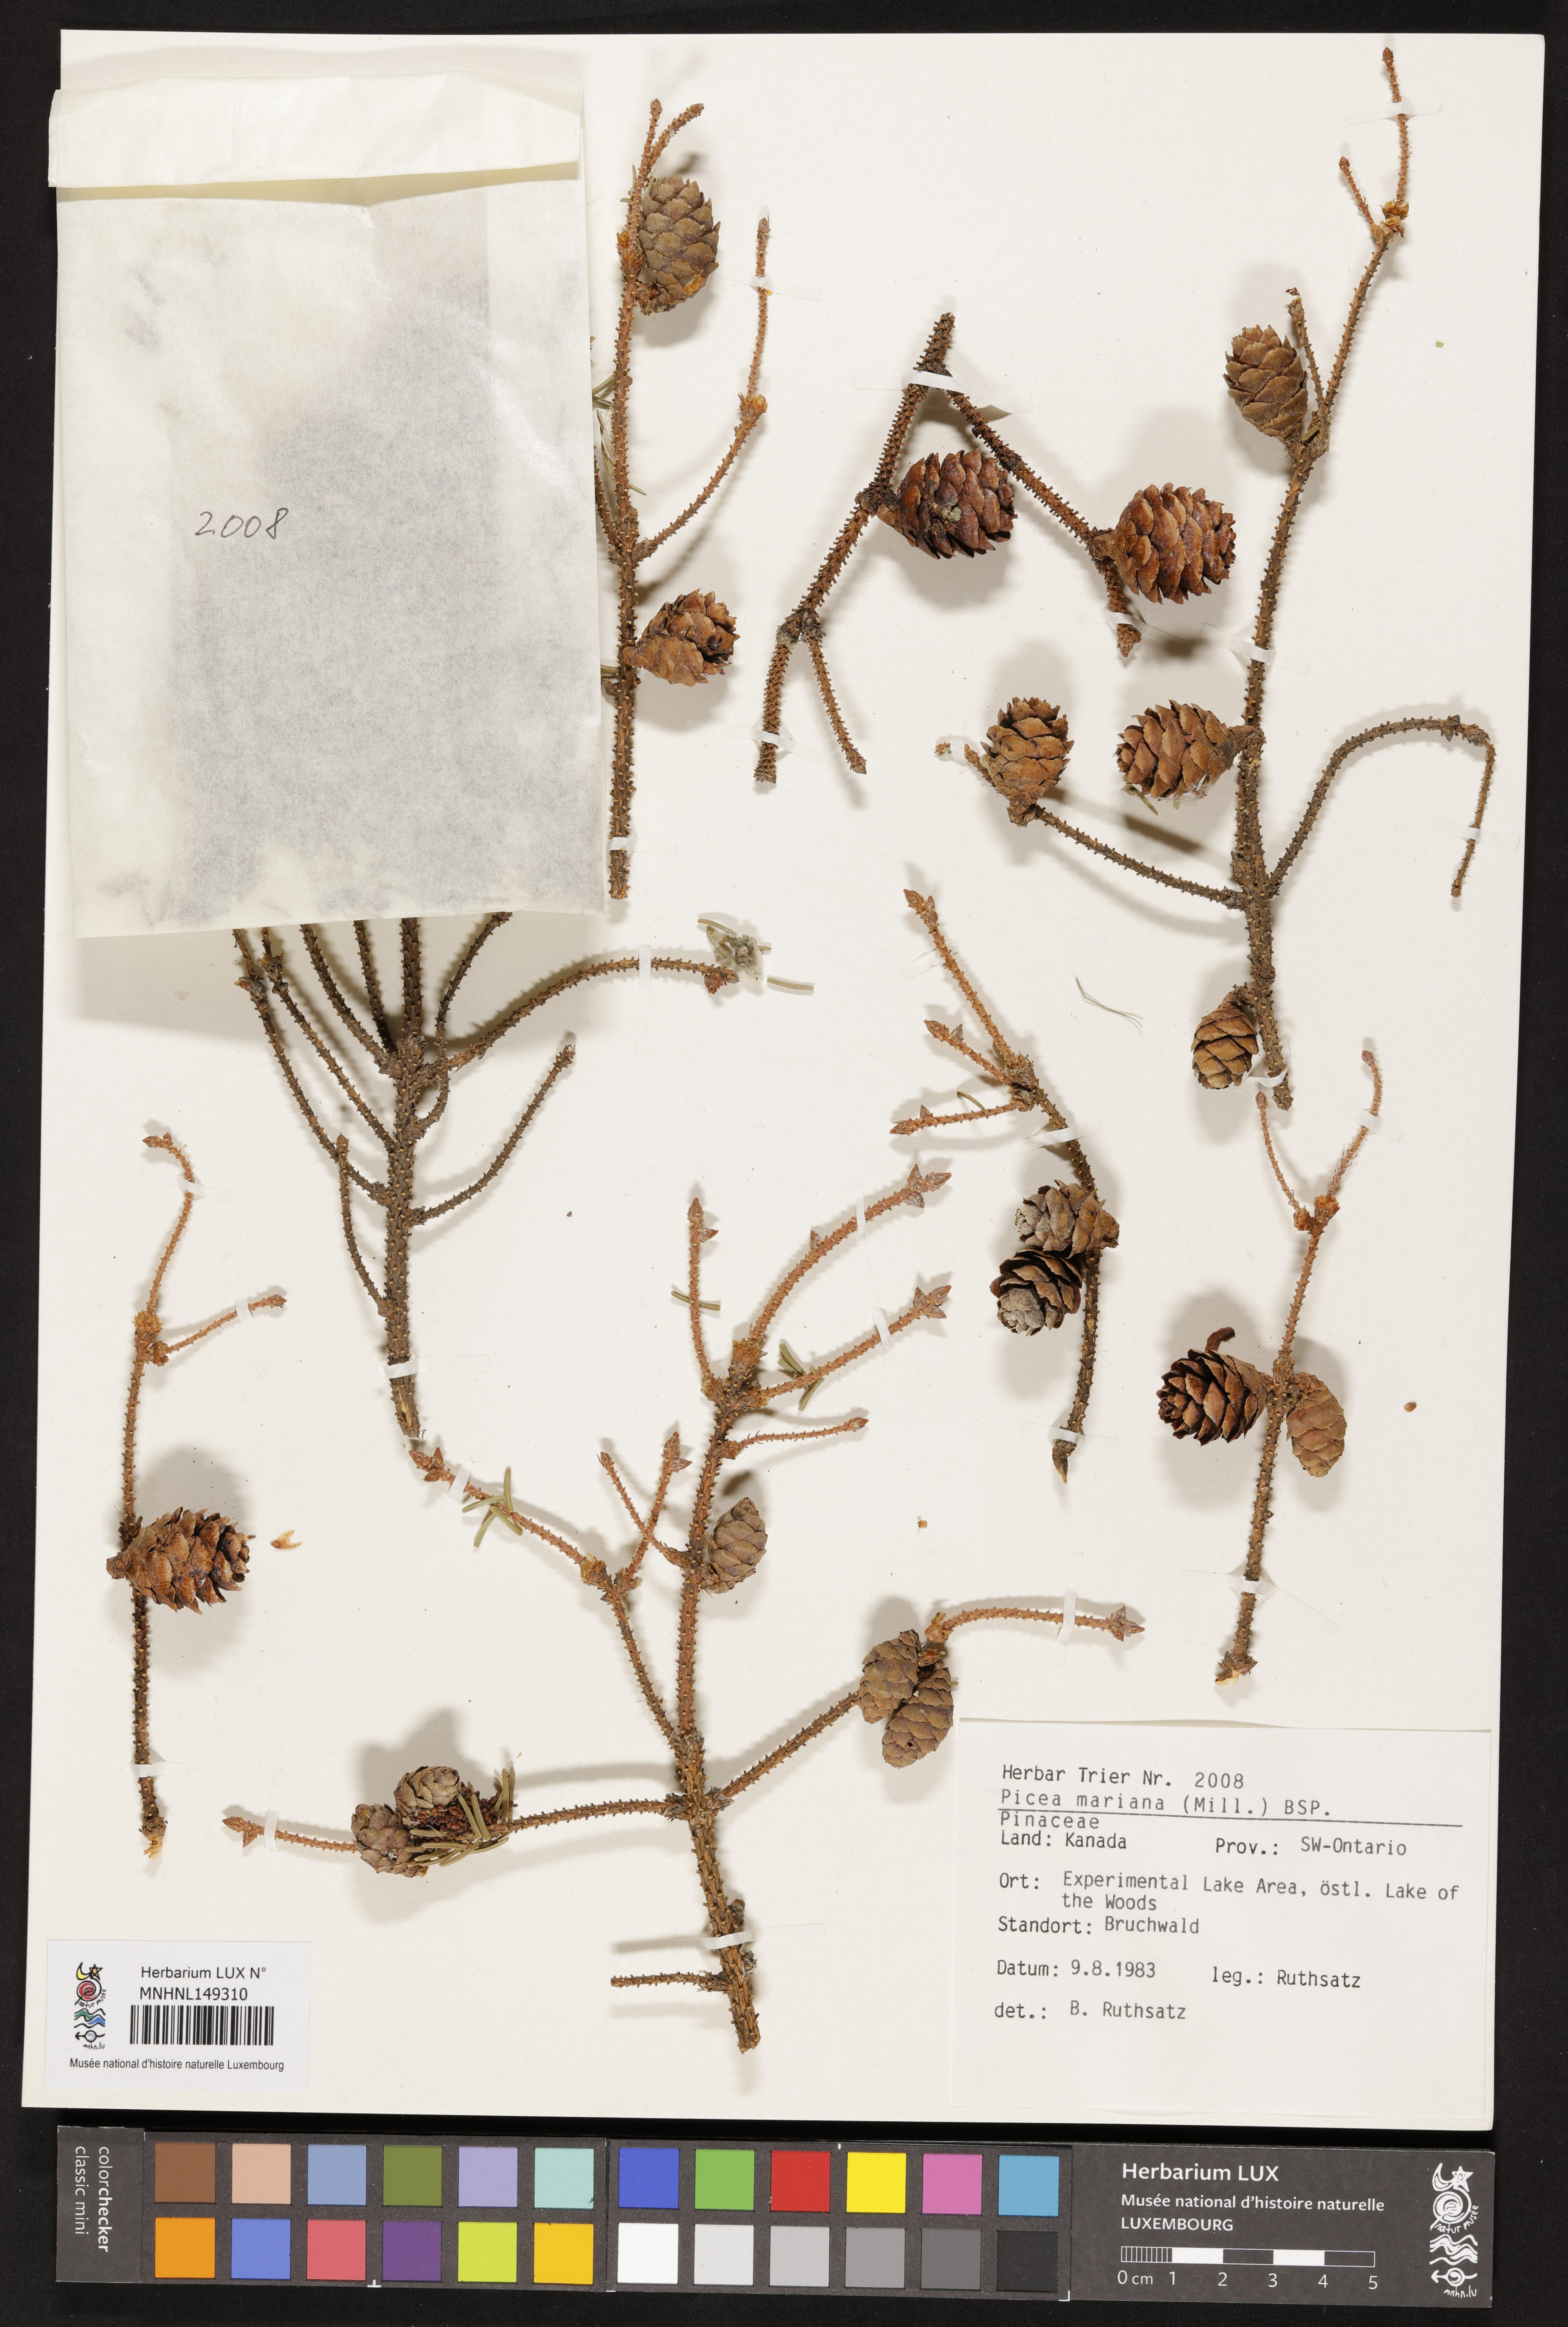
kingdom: Plantae
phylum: Tracheophyta
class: Pinopsida
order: Pinales
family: Pinaceae
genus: Picea
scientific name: Picea mariana
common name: Black spruce
